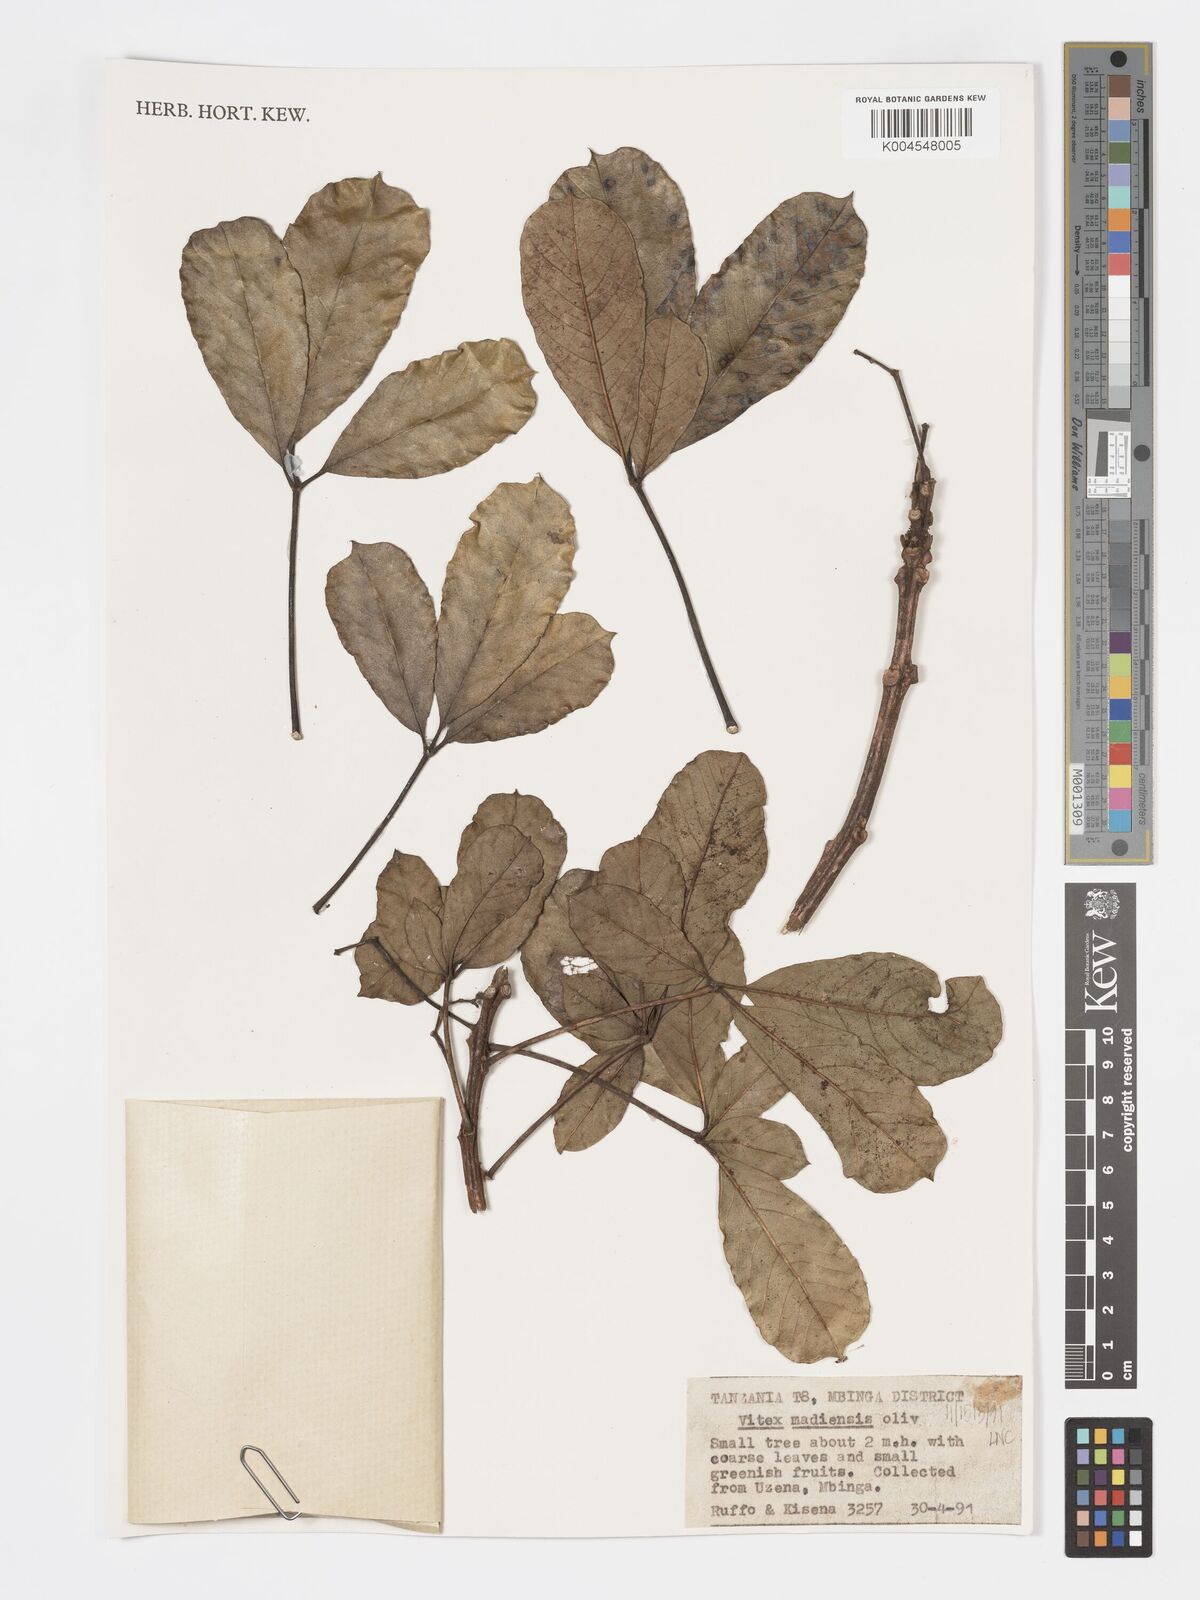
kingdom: Plantae
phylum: Tracheophyta
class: Magnoliopsida
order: Lamiales
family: Lamiaceae
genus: Vitex
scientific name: Vitex madiensis
